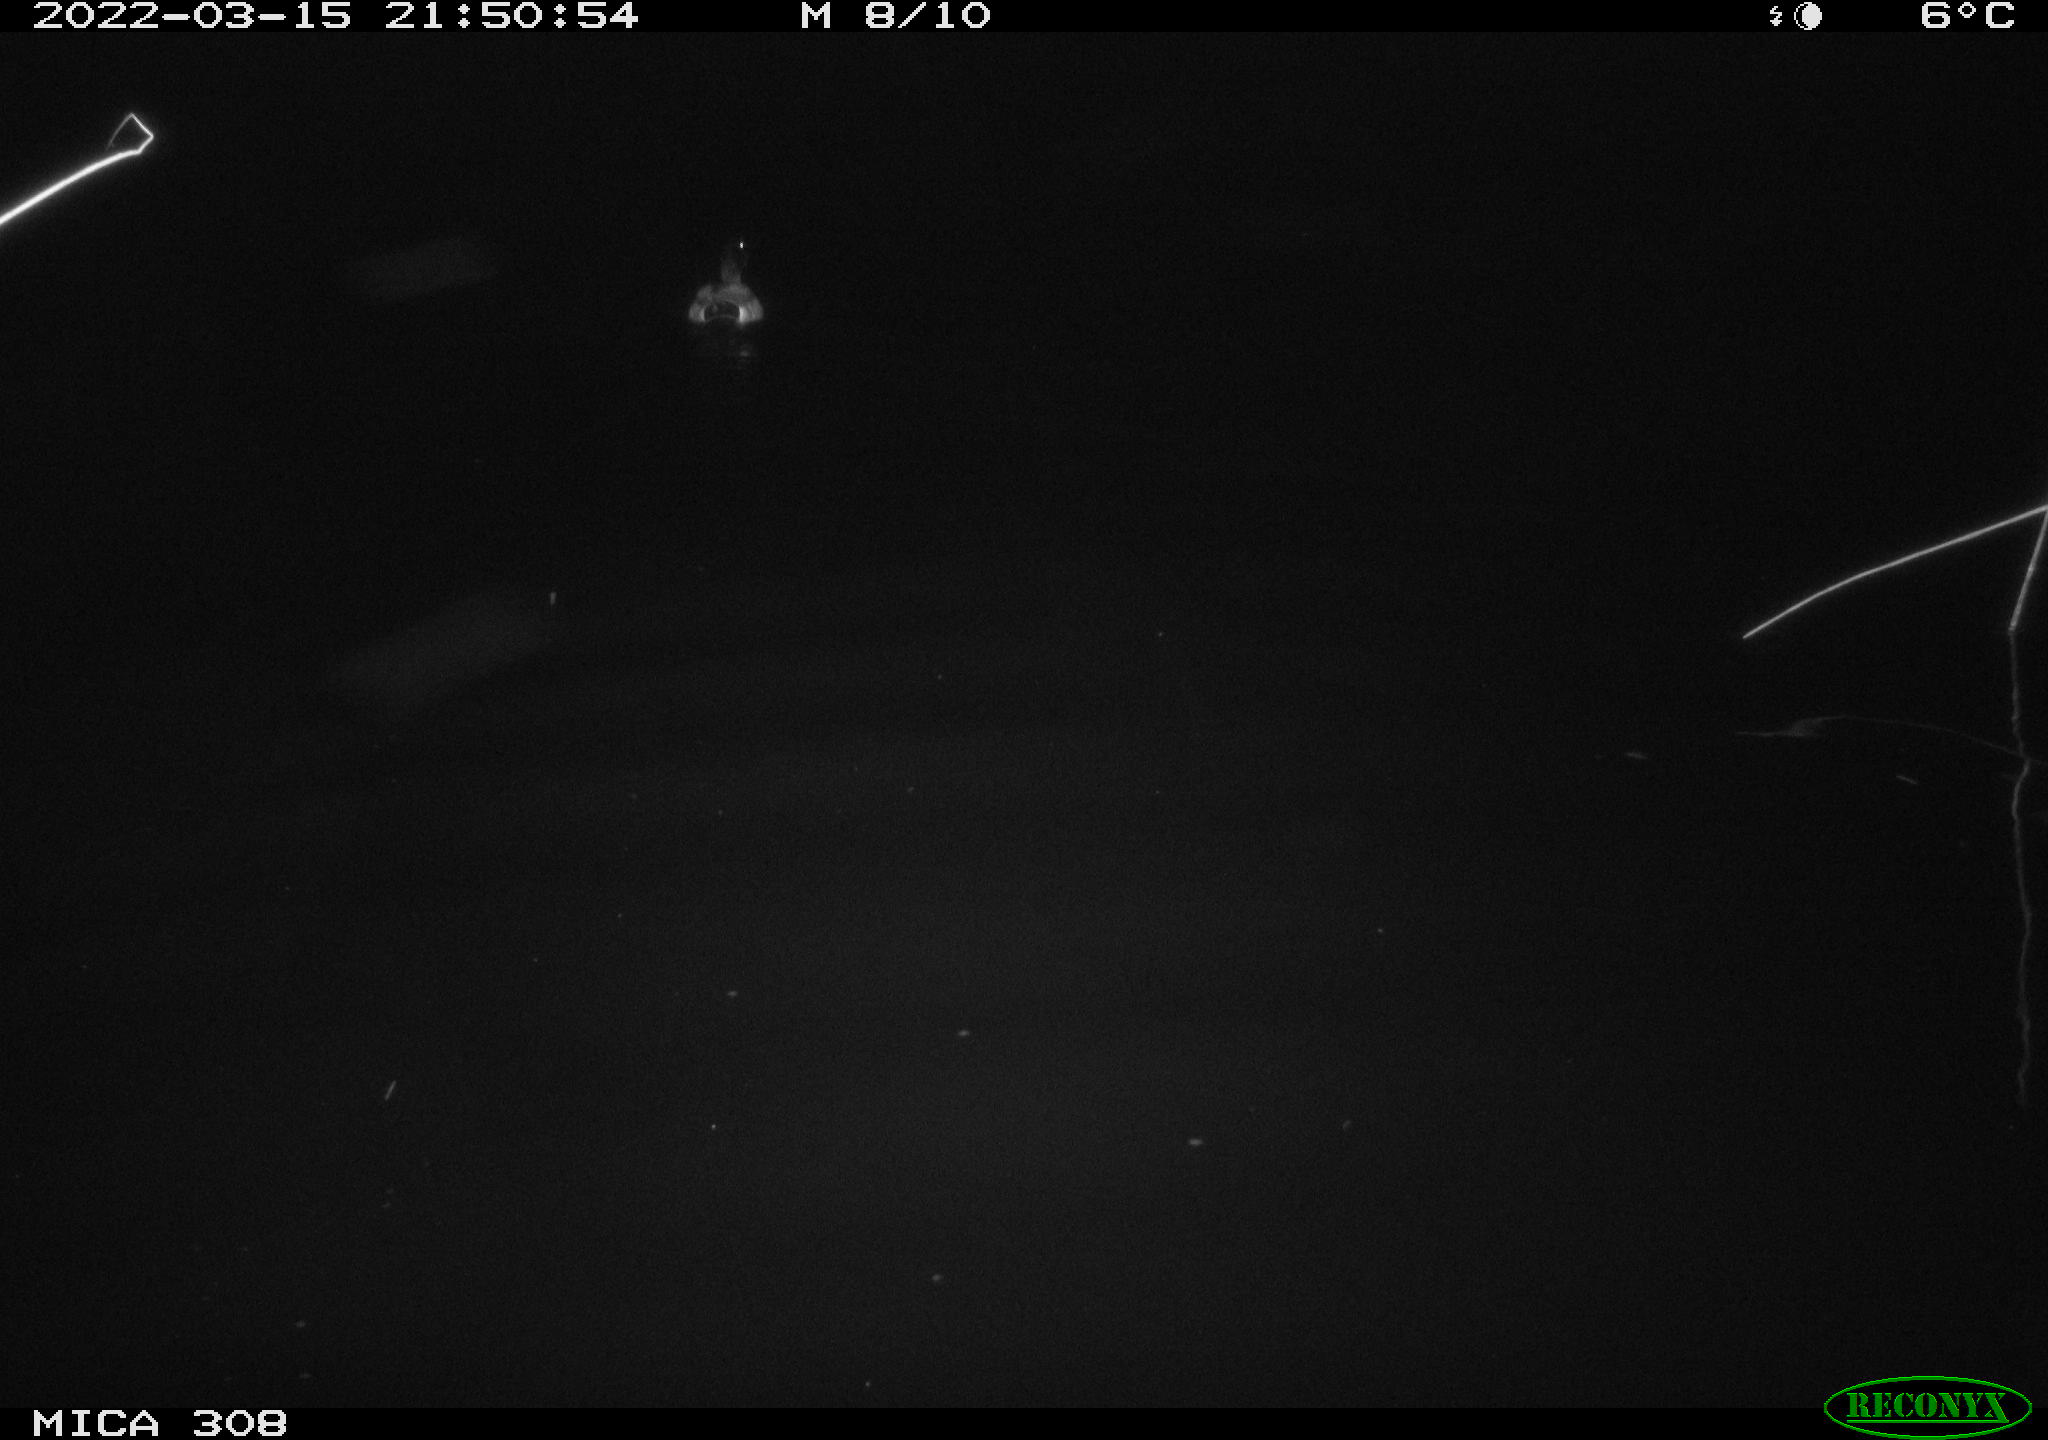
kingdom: Animalia
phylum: Chordata
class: Aves
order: Anseriformes
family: Anatidae
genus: Anas
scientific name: Anas platyrhynchos
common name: Mallard
